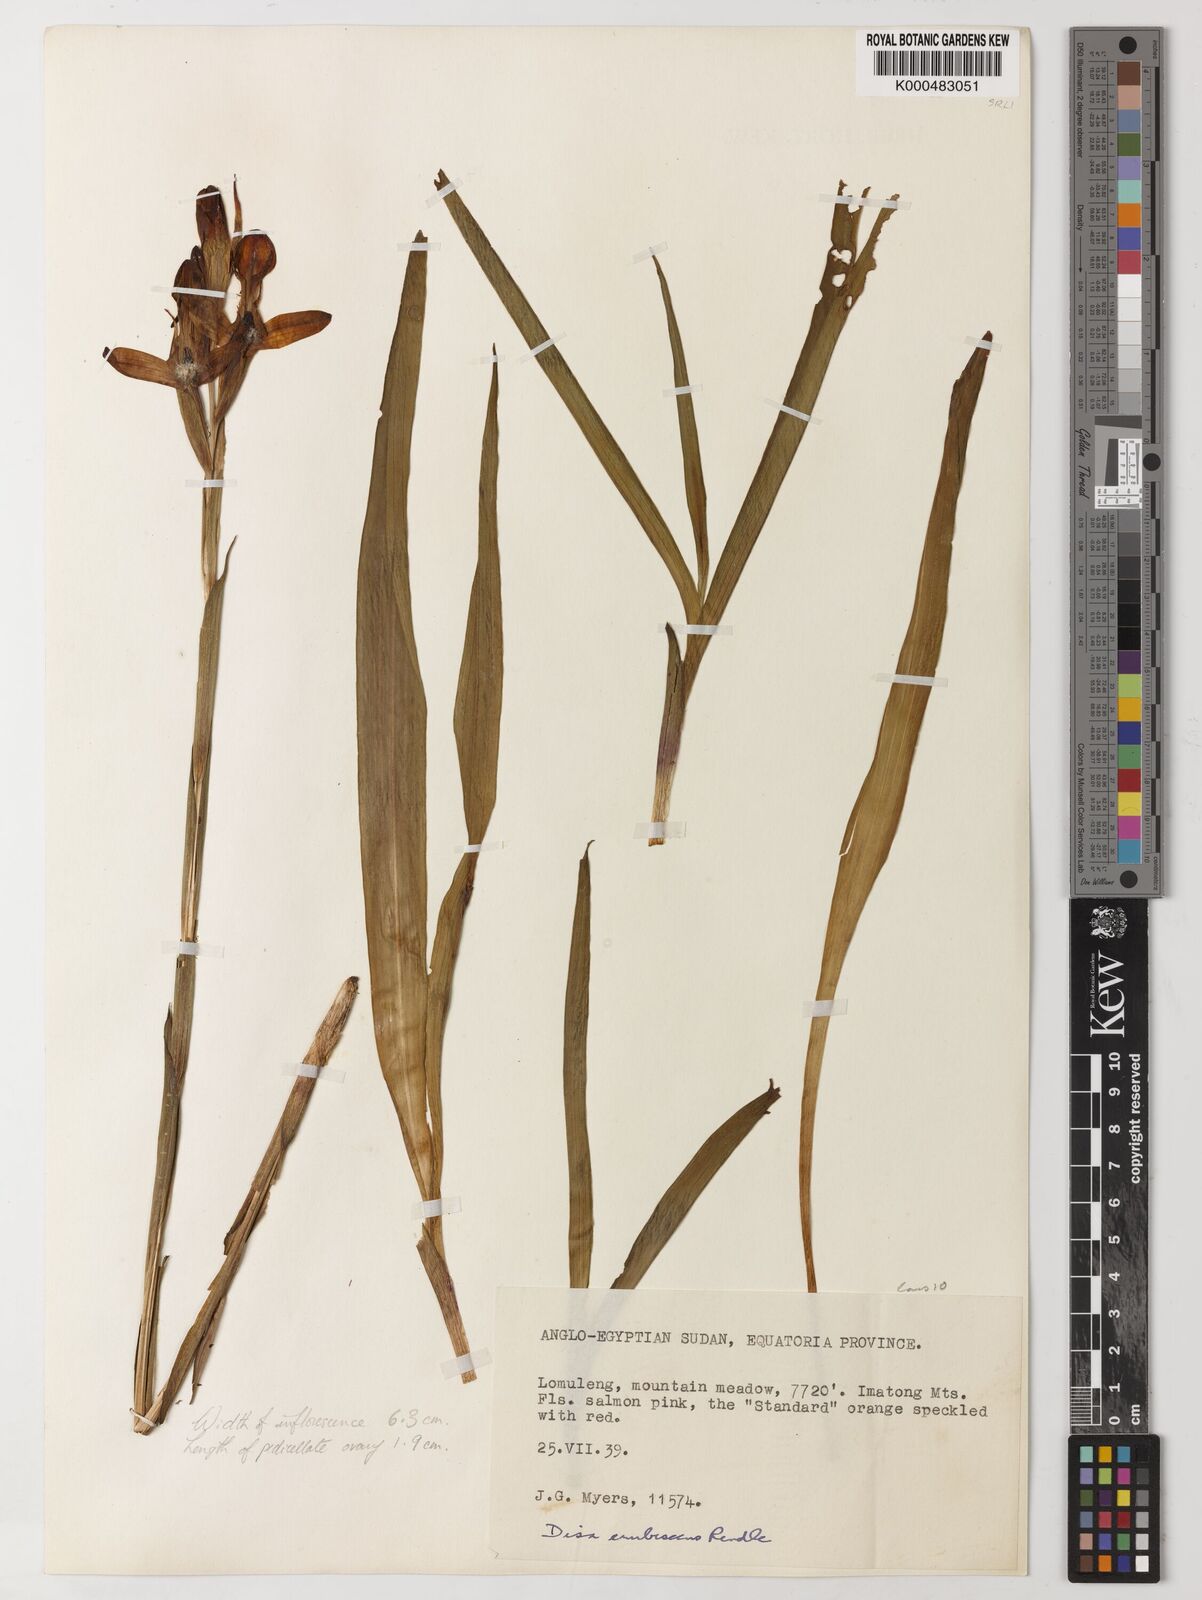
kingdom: Plantae
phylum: Tracheophyta
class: Liliopsida
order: Asparagales
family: Orchidaceae
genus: Disa
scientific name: Disa erubescens
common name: The rose disa
